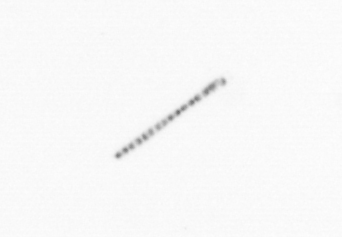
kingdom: Chromista
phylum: Ochrophyta
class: Bacillariophyceae
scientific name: Bacillariophyceae
